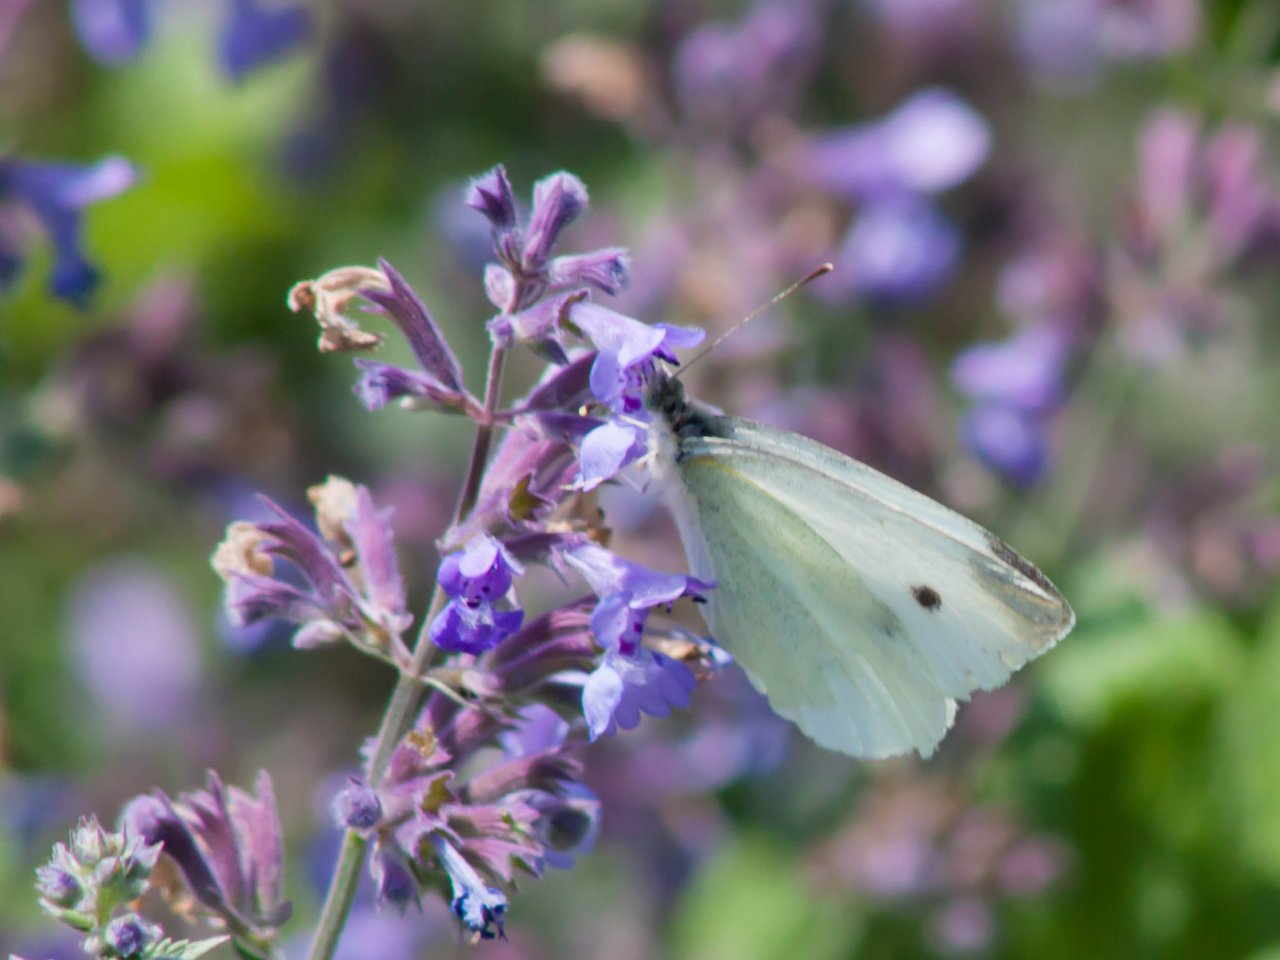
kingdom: Animalia
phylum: Arthropoda
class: Insecta
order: Lepidoptera
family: Pieridae
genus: Pieris
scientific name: Pieris rapae
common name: Cabbage White
